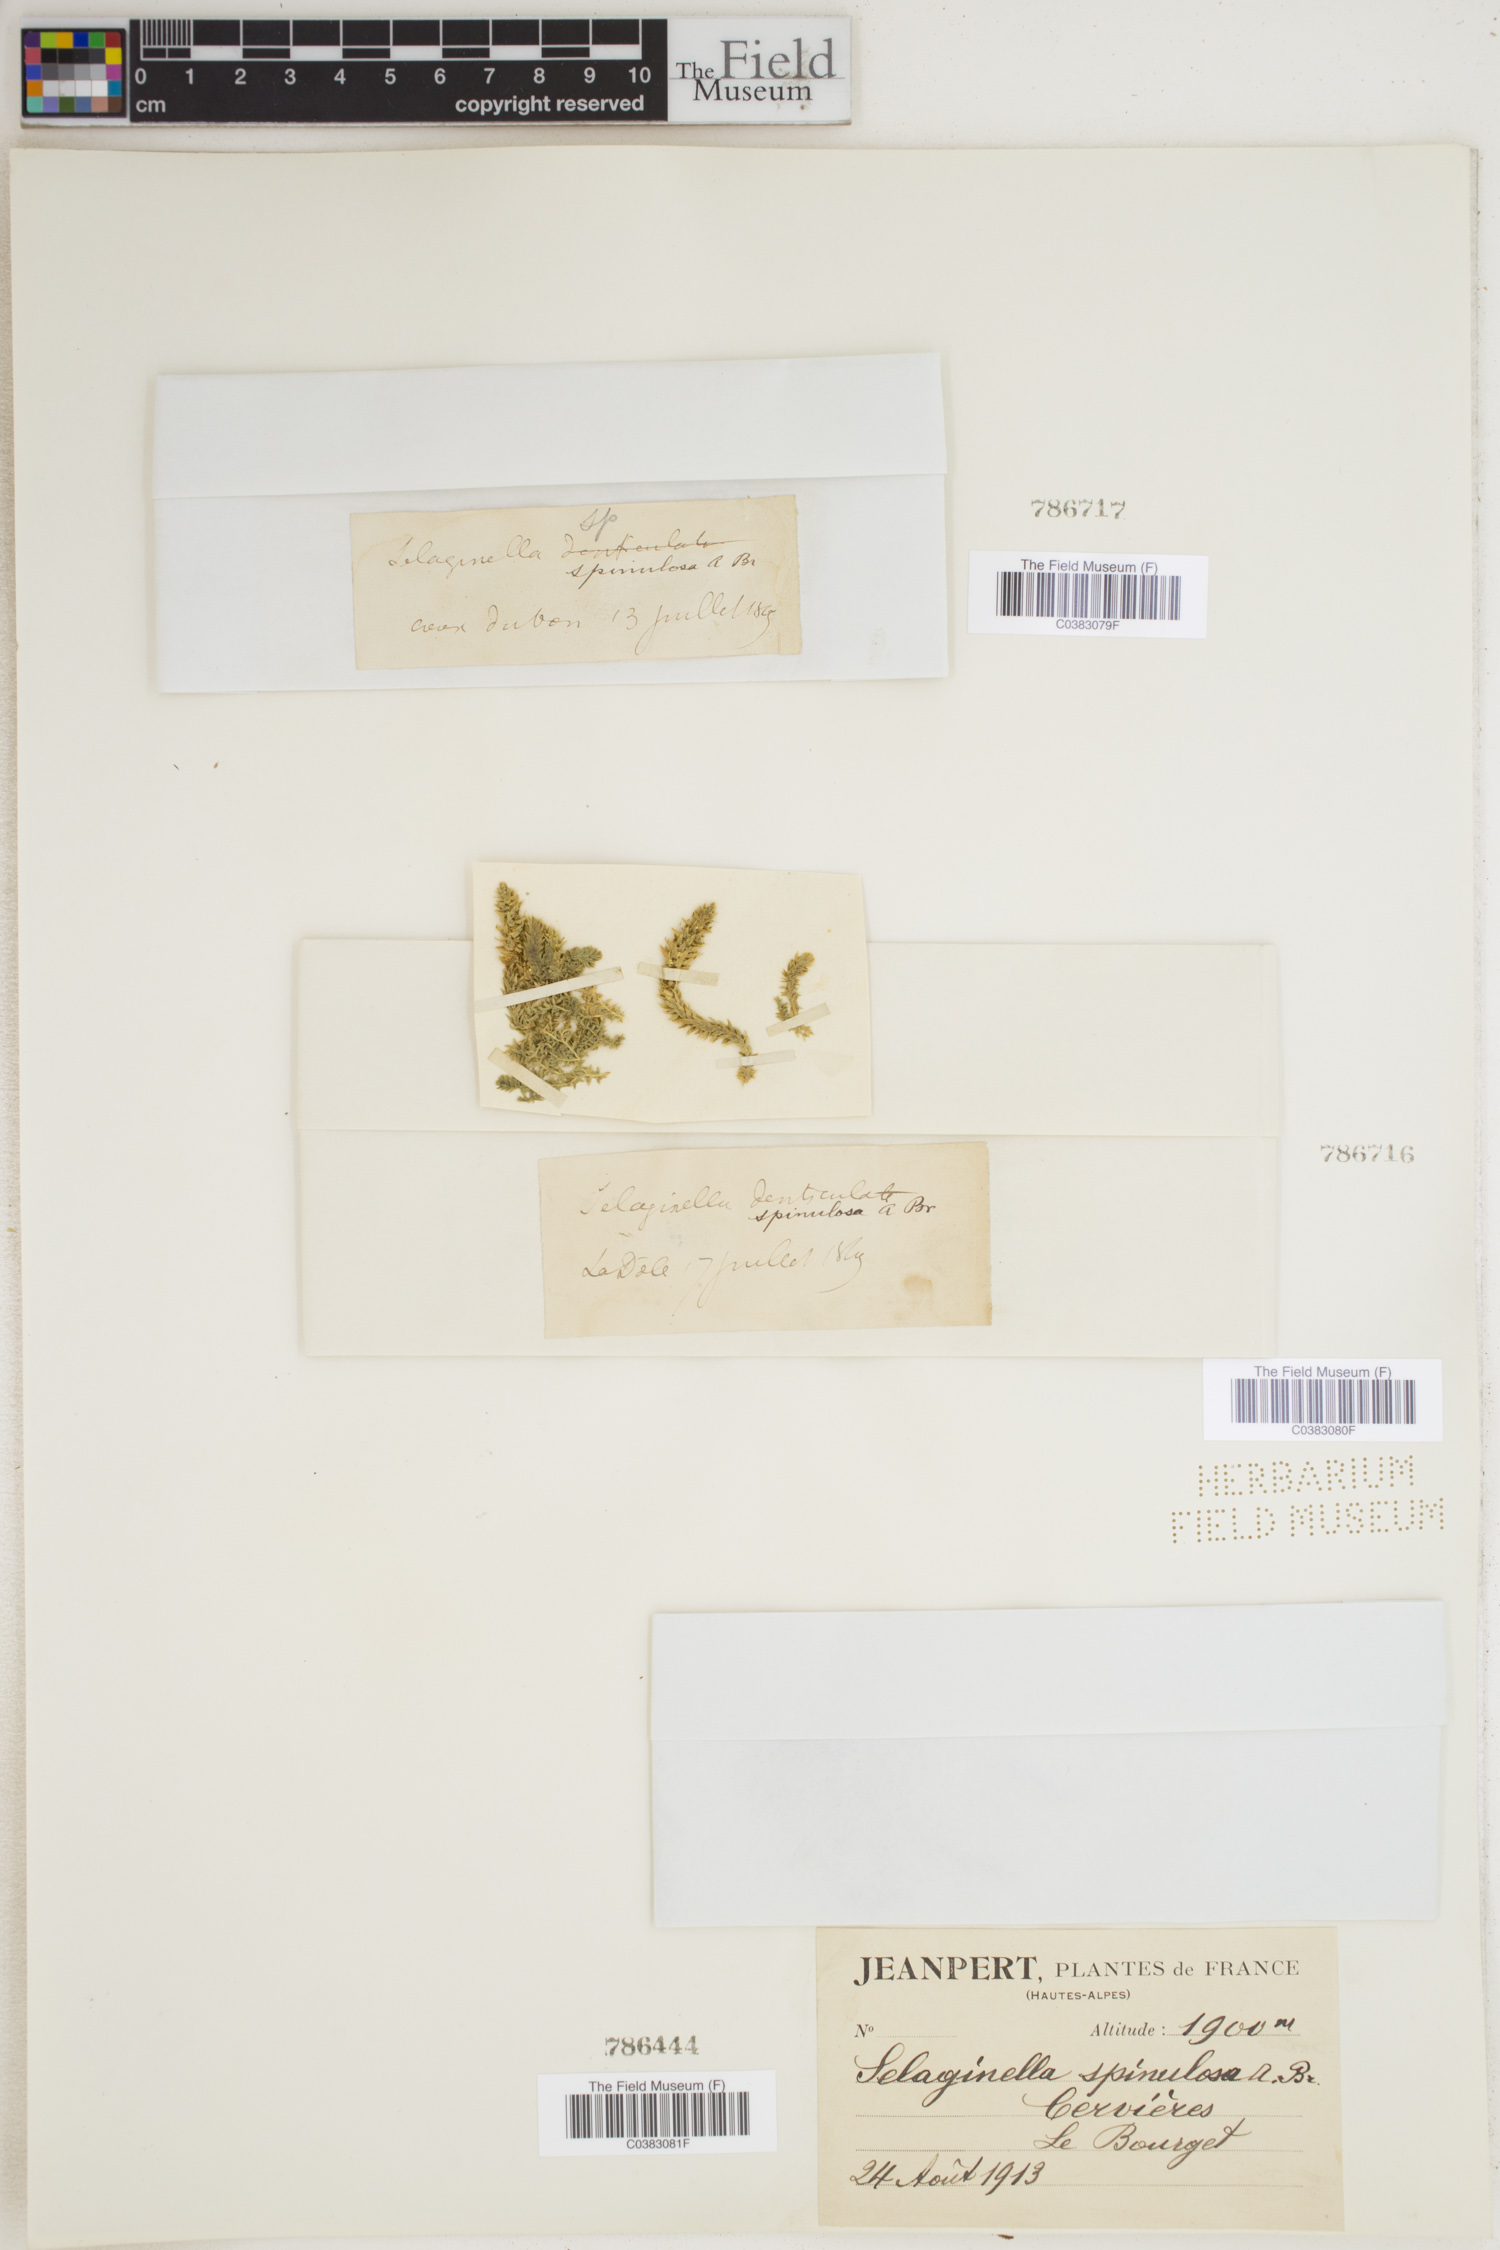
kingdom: Plantae
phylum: Tracheophyta
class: Lycopodiopsida
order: Selaginellales
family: Selaginellaceae
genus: Selaginella
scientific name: Selaginella selaginoides
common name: Prickly mountain-moss
